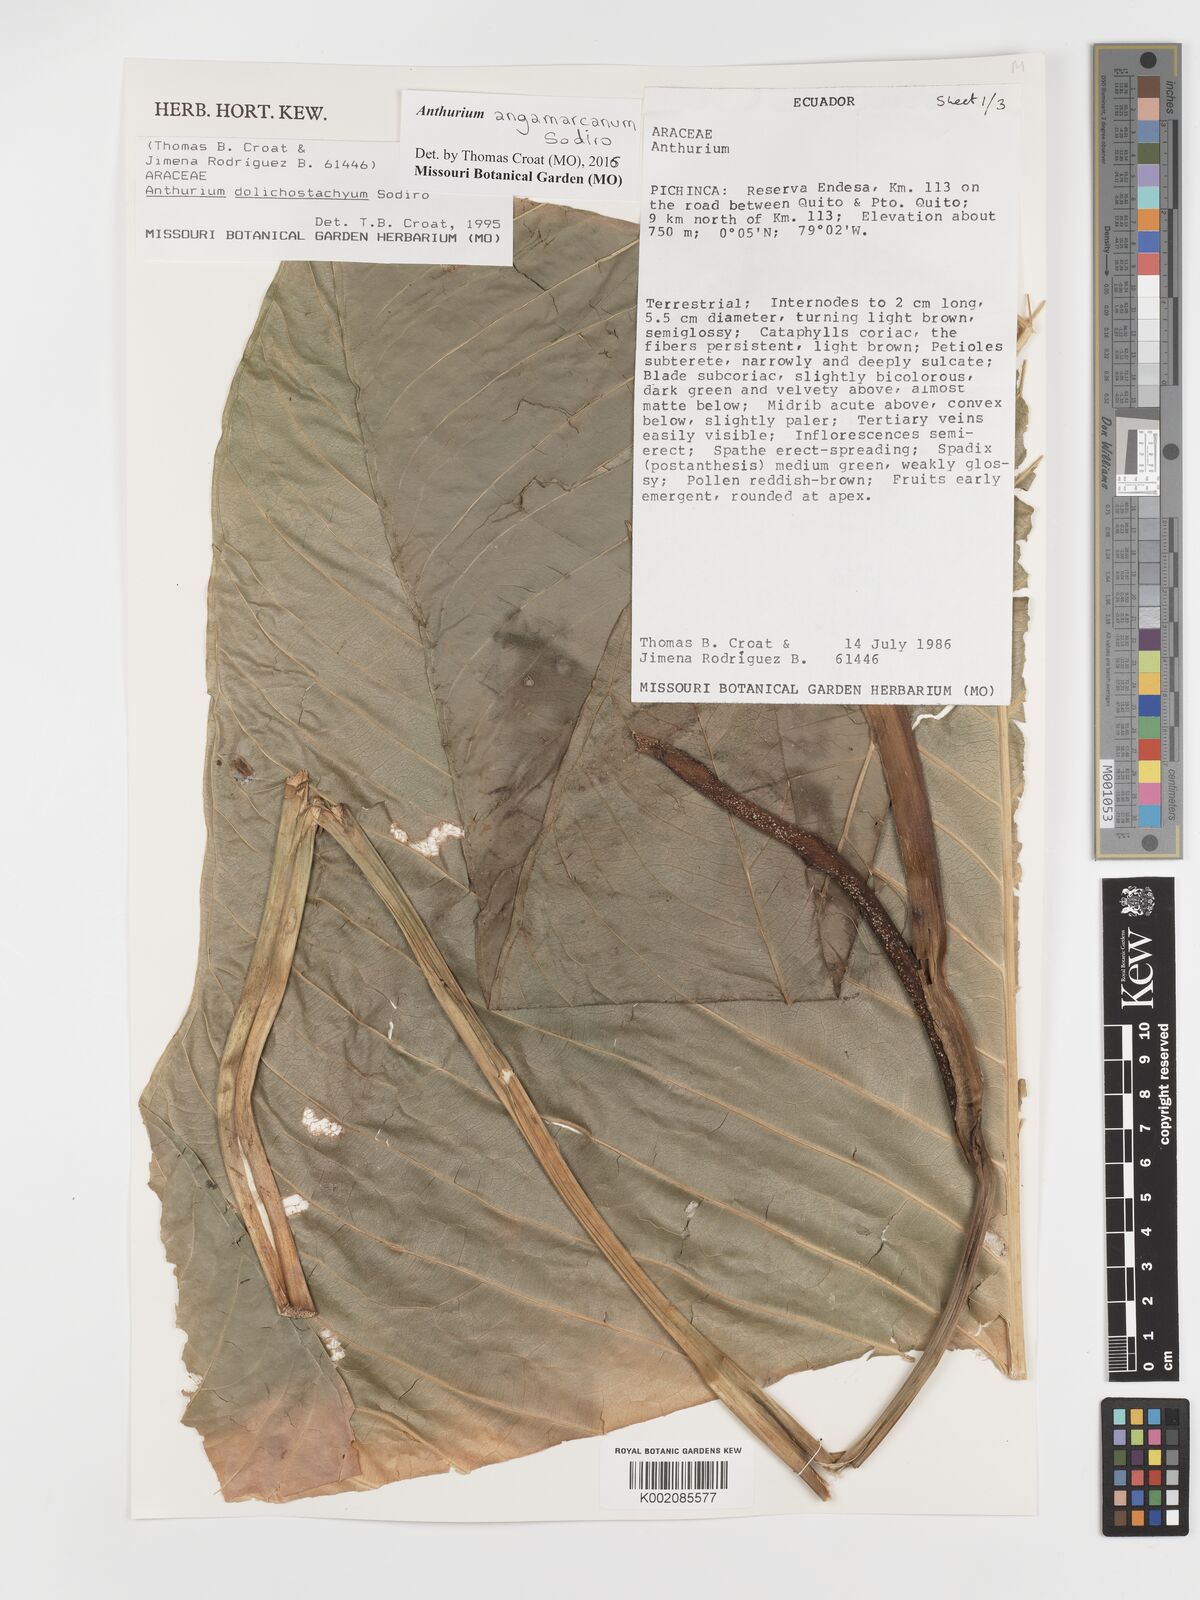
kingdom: Plantae
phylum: Tracheophyta
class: Liliopsida
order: Alismatales
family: Araceae
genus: Anthurium
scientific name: Anthurium dolichostachyum
